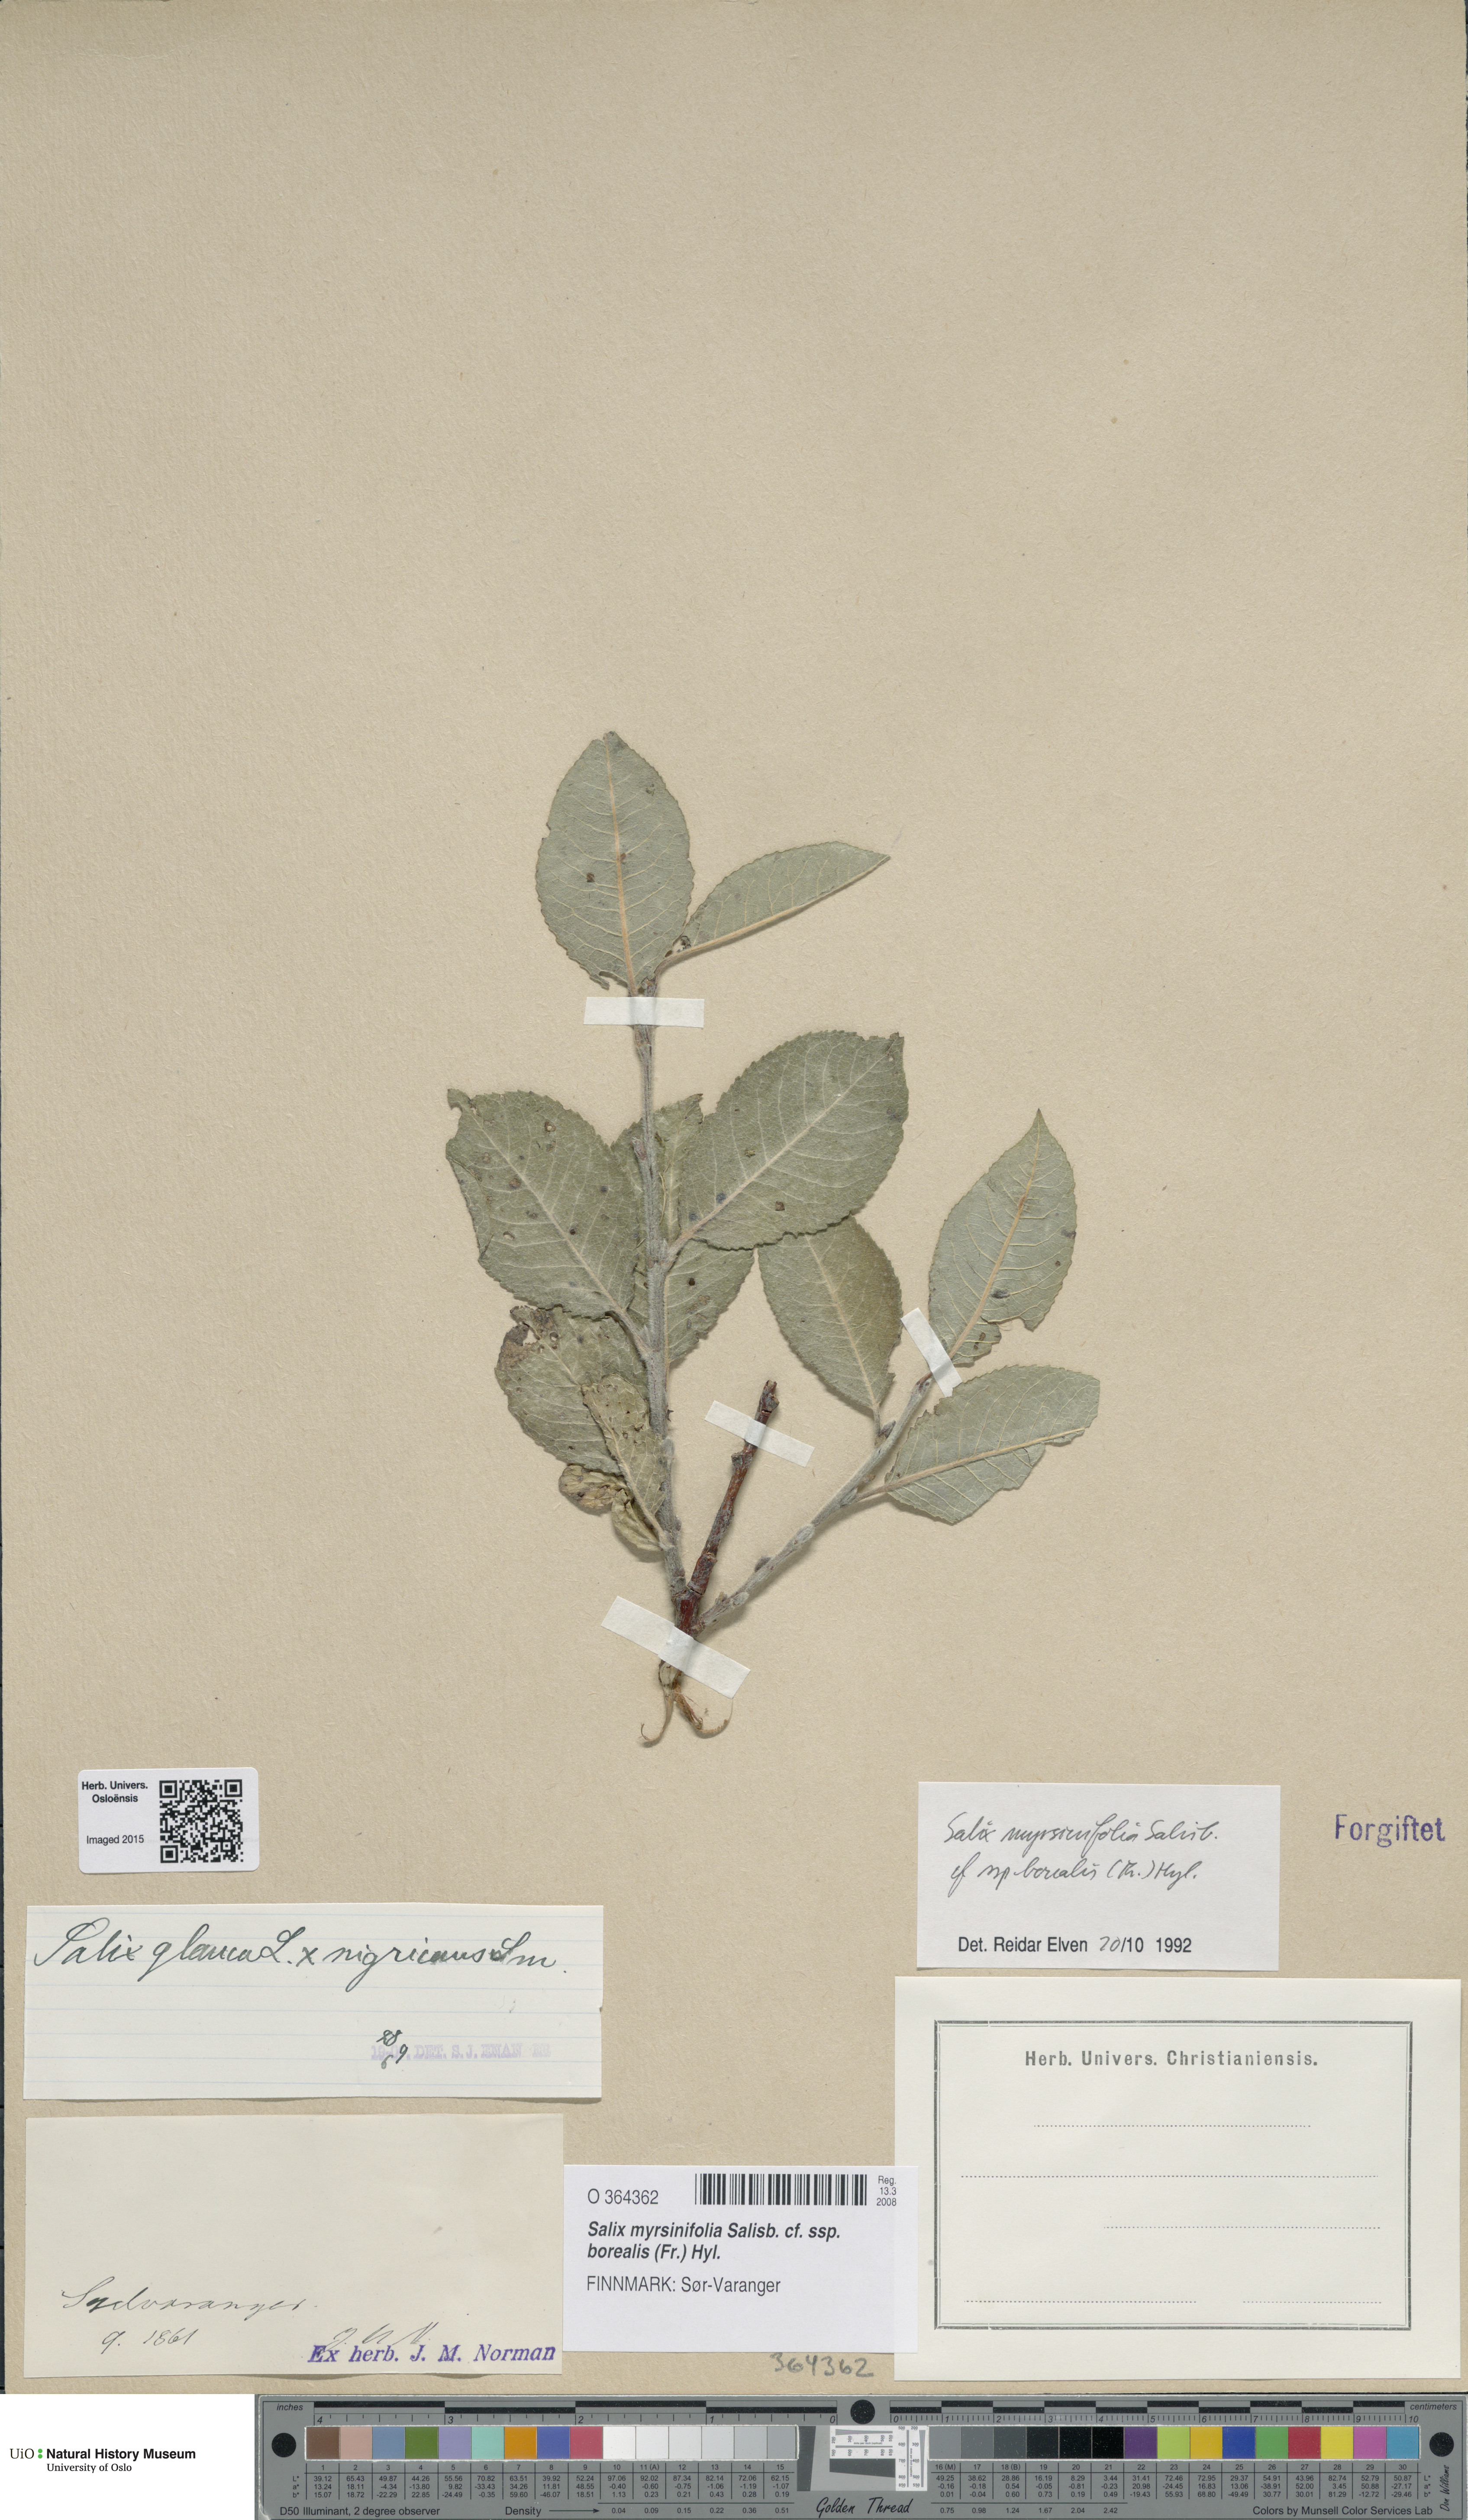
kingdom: Plantae
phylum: Tracheophyta
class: Magnoliopsida
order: Malpighiales
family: Salicaceae
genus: Salix
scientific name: Salix myrsinifolia
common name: Dark-leaved willow
